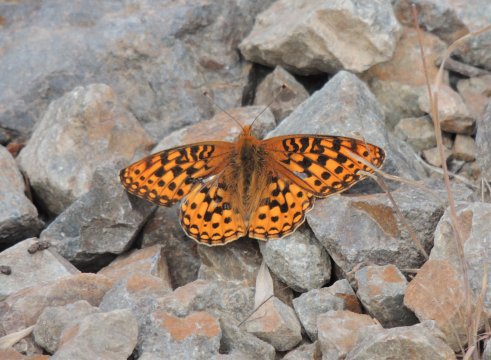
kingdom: Animalia
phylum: Arthropoda
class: Insecta
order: Lepidoptera
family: Nymphalidae
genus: Speyeria
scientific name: Speyeria hydaspe
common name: Hydaspe Fritillary
